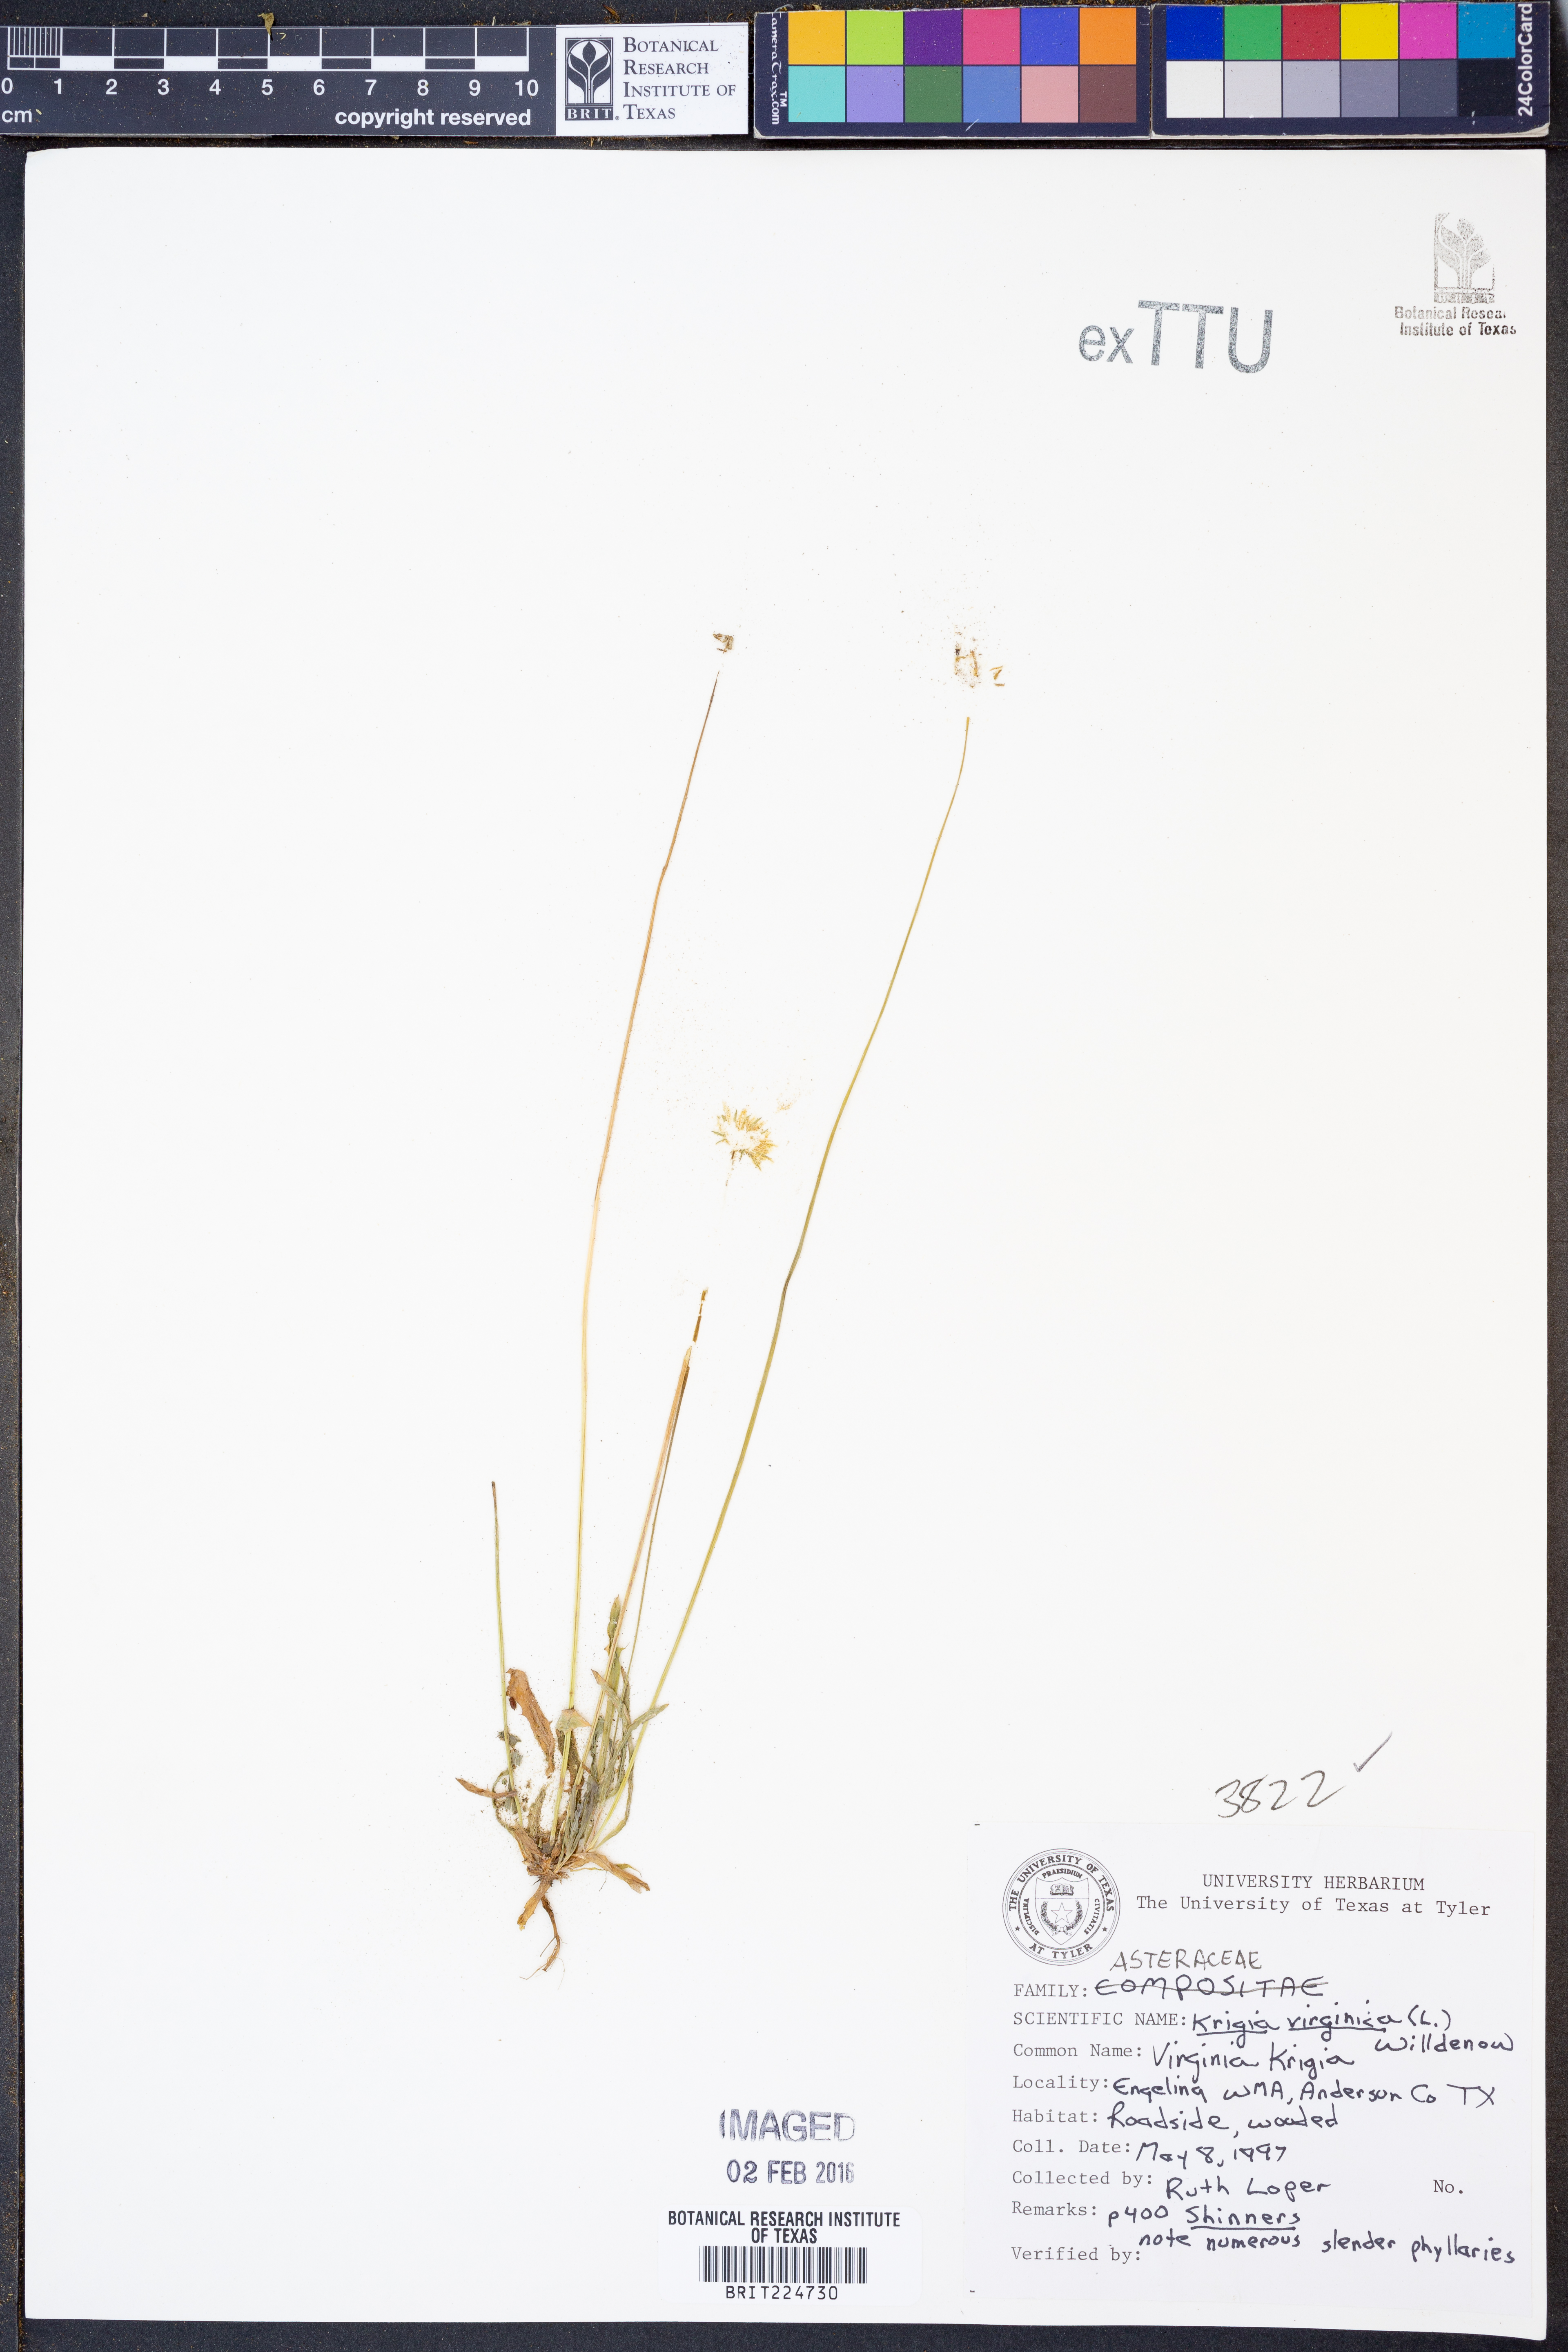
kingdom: Plantae
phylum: Tracheophyta
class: Magnoliopsida
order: Asterales
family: Asteraceae
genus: Krigia
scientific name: Krigia virginica
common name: Virginia dwarf-dandelion
